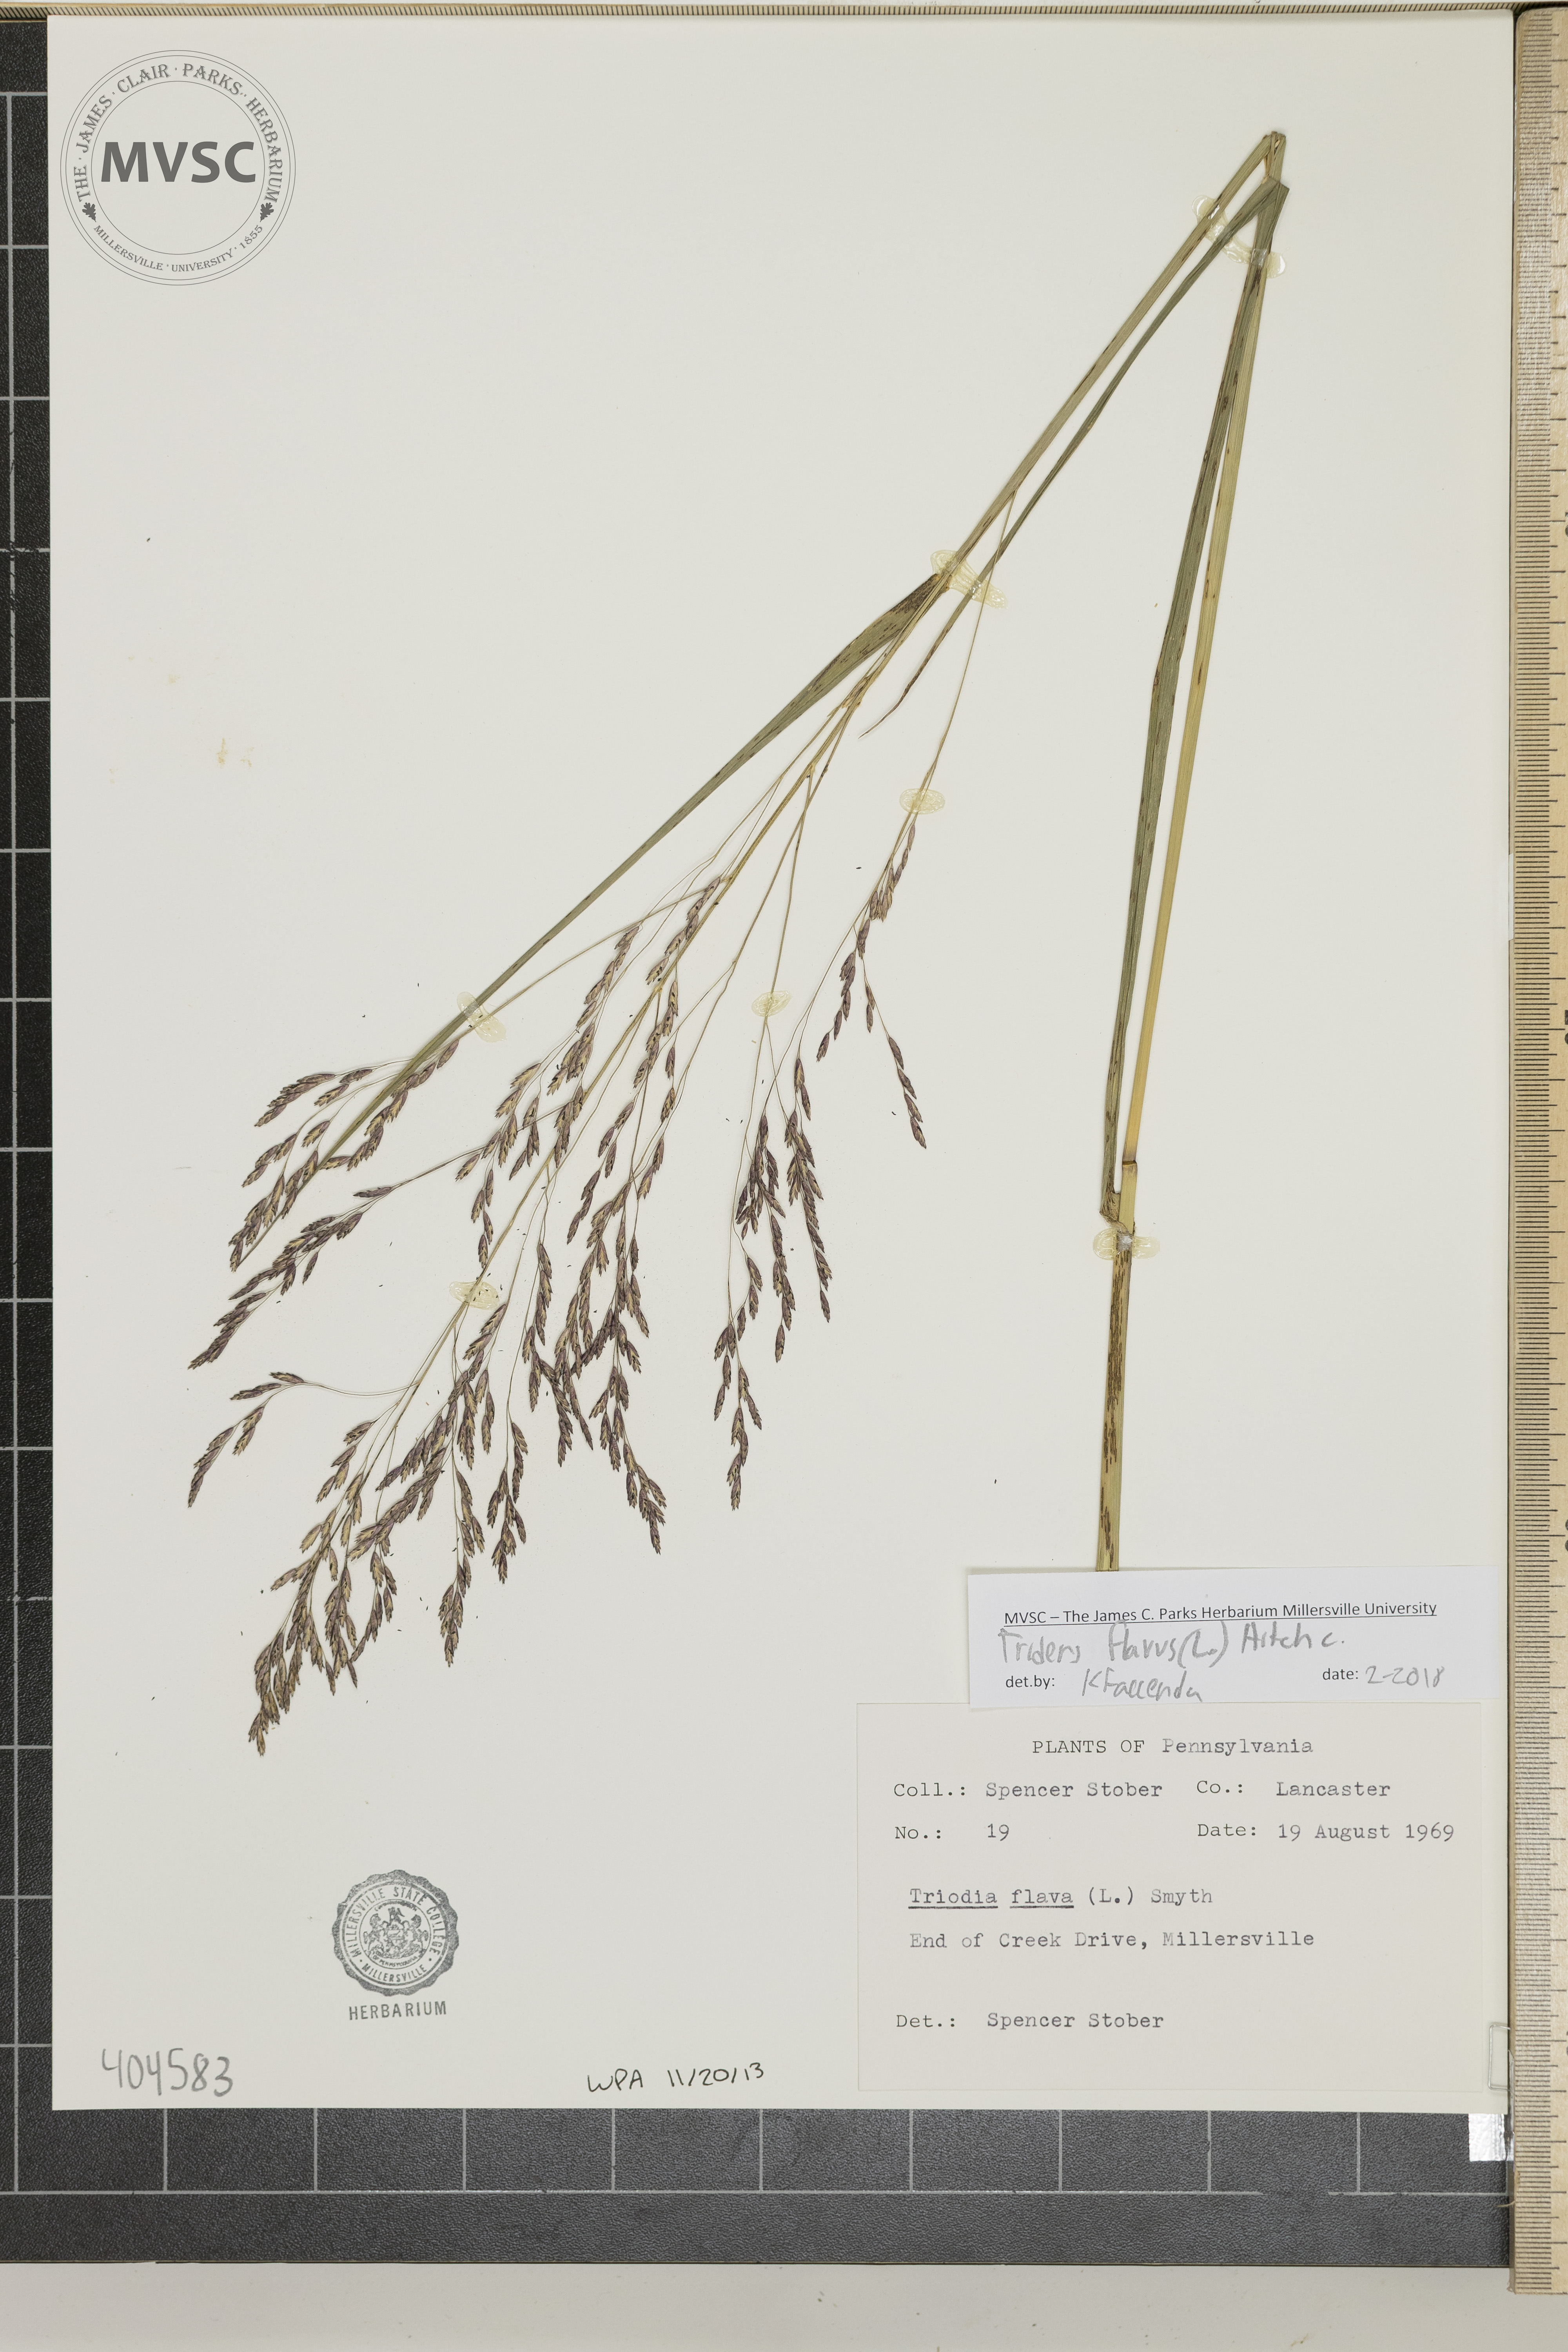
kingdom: Plantae
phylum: Tracheophyta
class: Liliopsida
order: Poales
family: Poaceae
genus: Tridens
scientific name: Tridens flavus
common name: Purpletop
